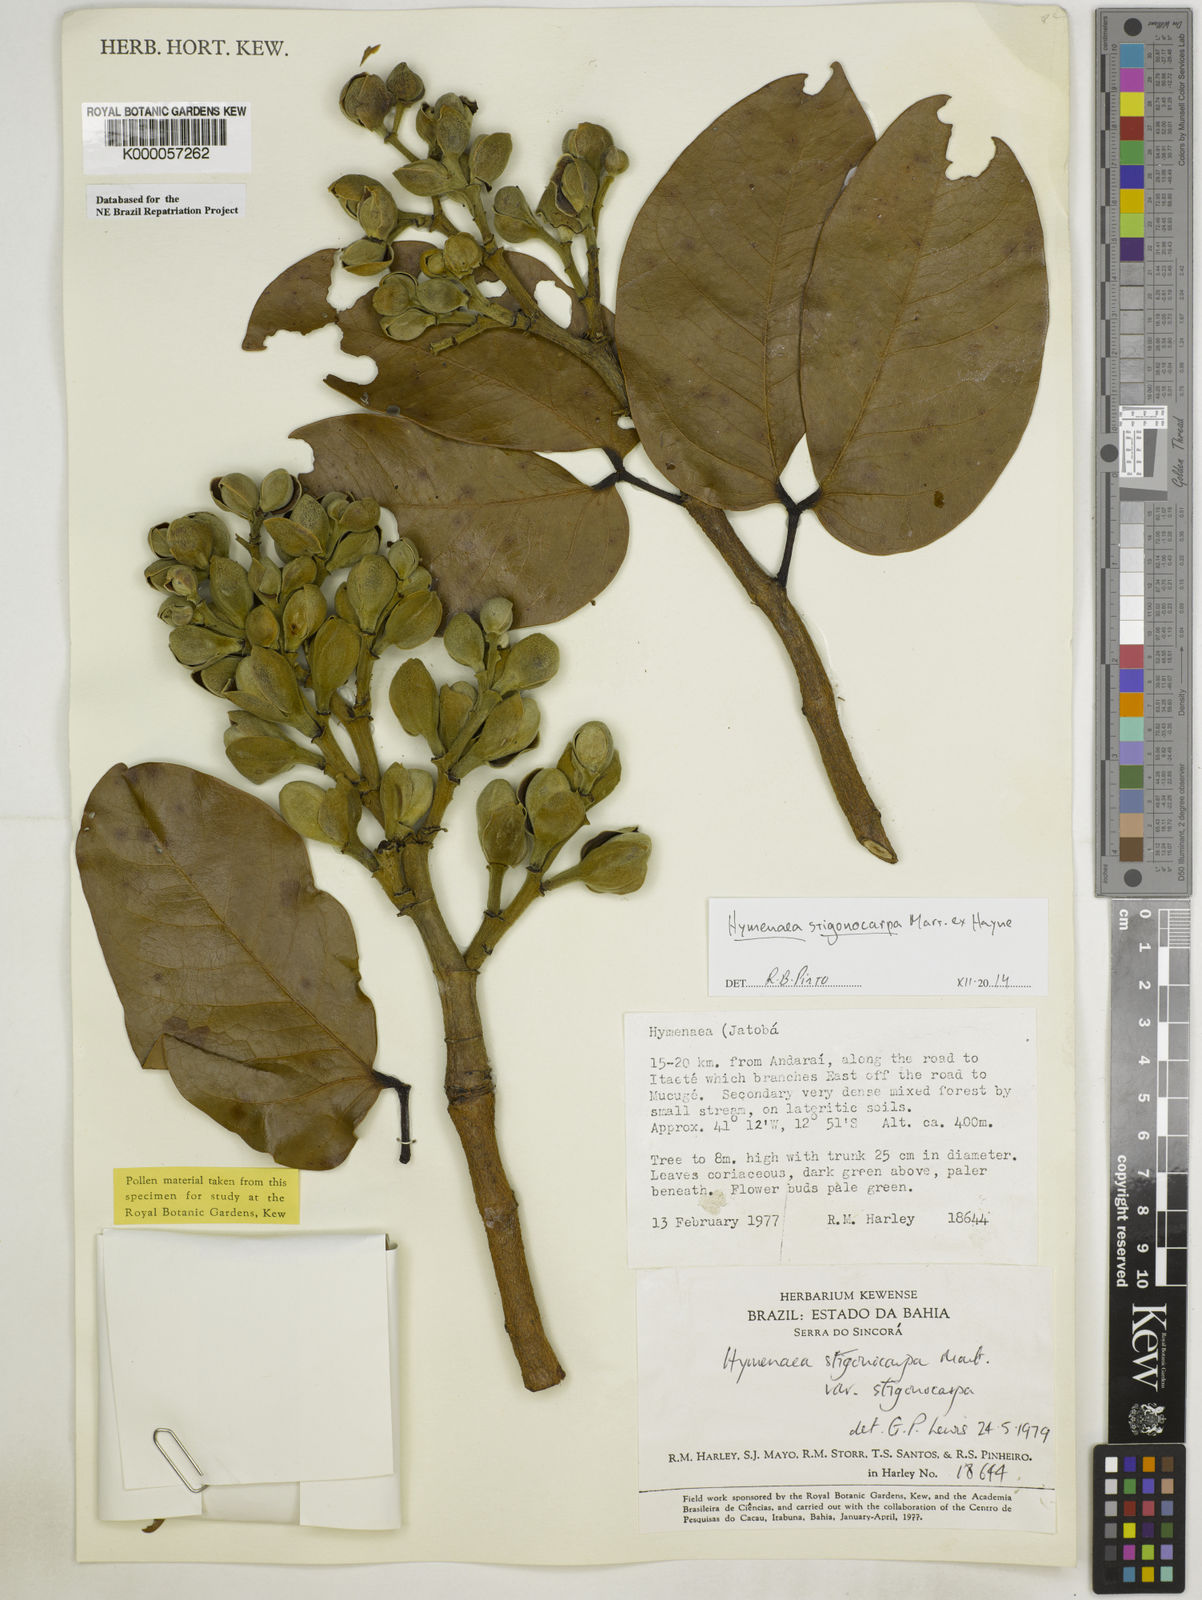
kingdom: Plantae
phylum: Tracheophyta
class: Magnoliopsida
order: Fabales
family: Fabaceae
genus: Hymenaea
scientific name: Hymenaea stigonocarpa
